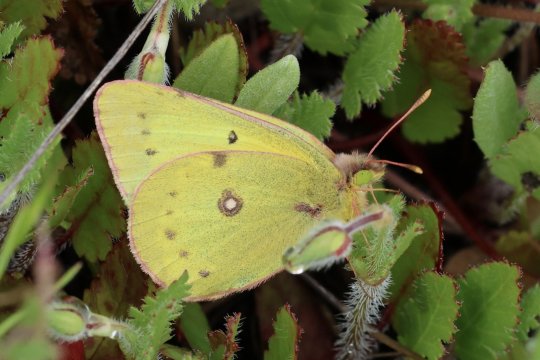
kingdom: Animalia
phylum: Arthropoda
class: Insecta
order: Lepidoptera
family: Pieridae
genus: Colias
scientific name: Colias eurytheme
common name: Orange Sulphur
